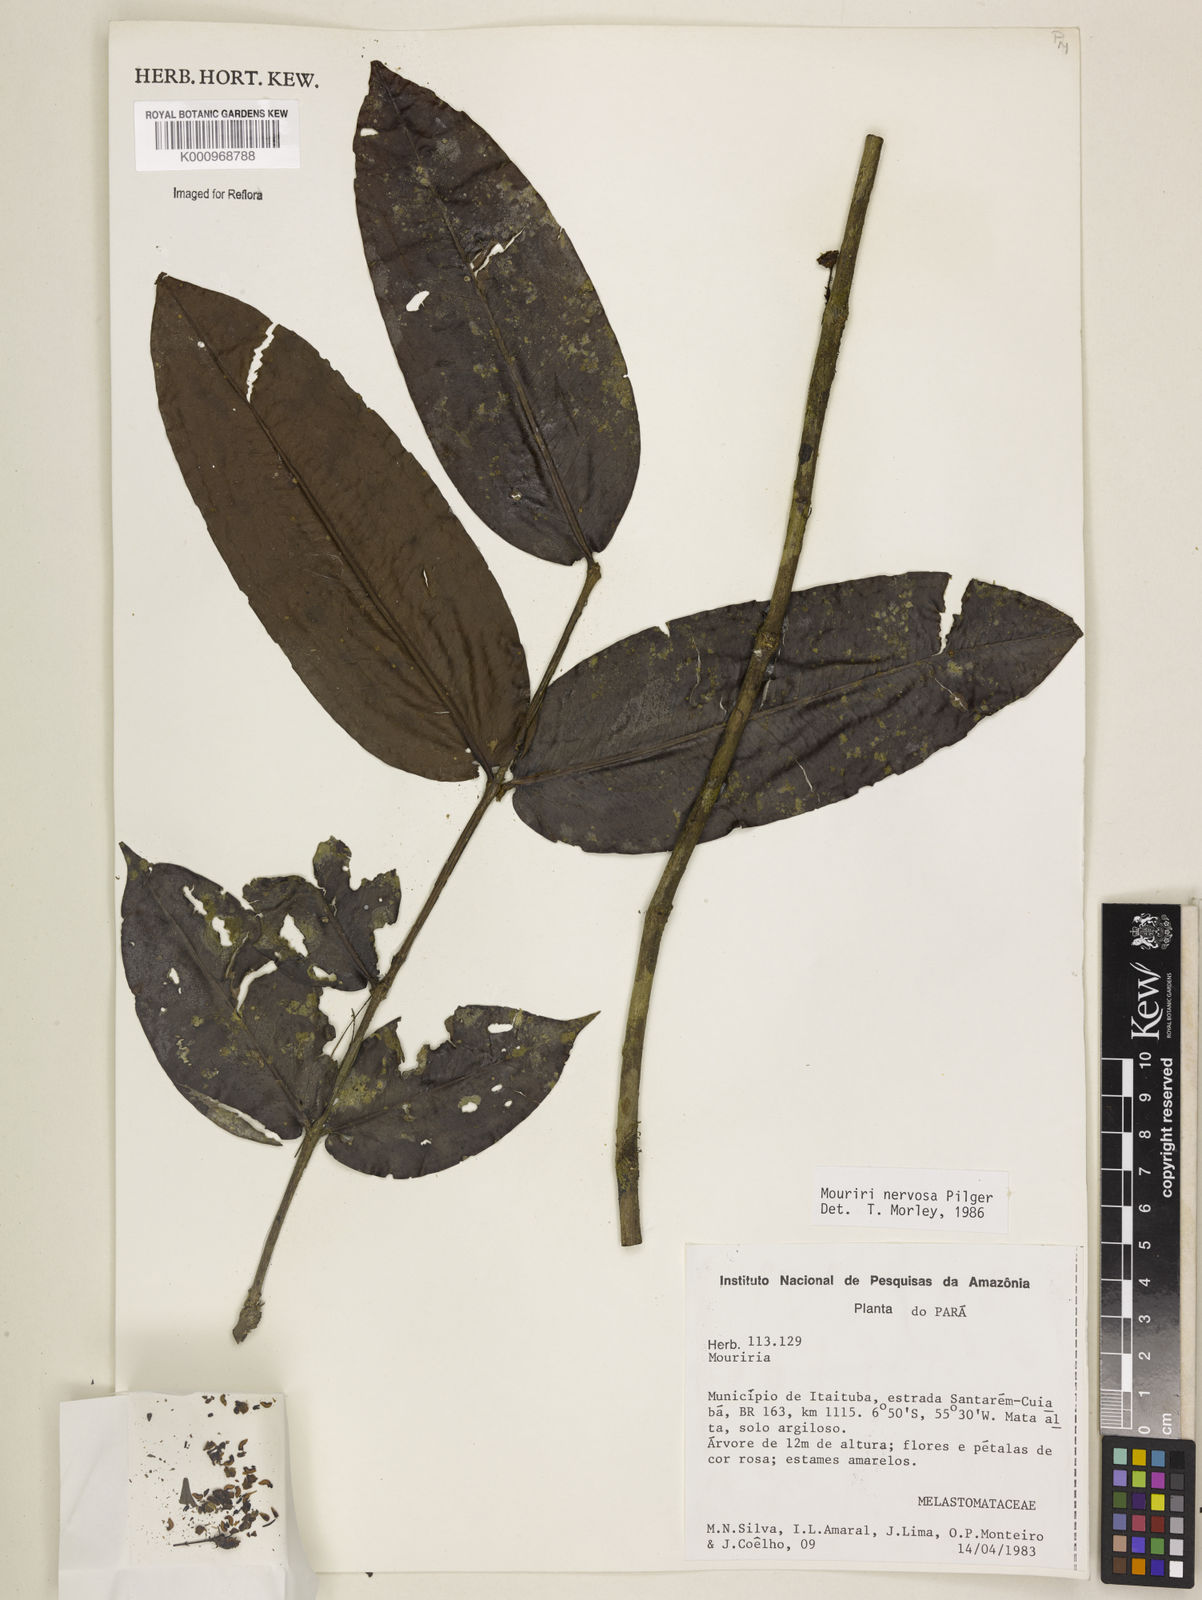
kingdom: Plantae
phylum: Tracheophyta
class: Magnoliopsida
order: Myrtales
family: Melastomataceae
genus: Mouriri
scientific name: Mouriri sideroxylon
